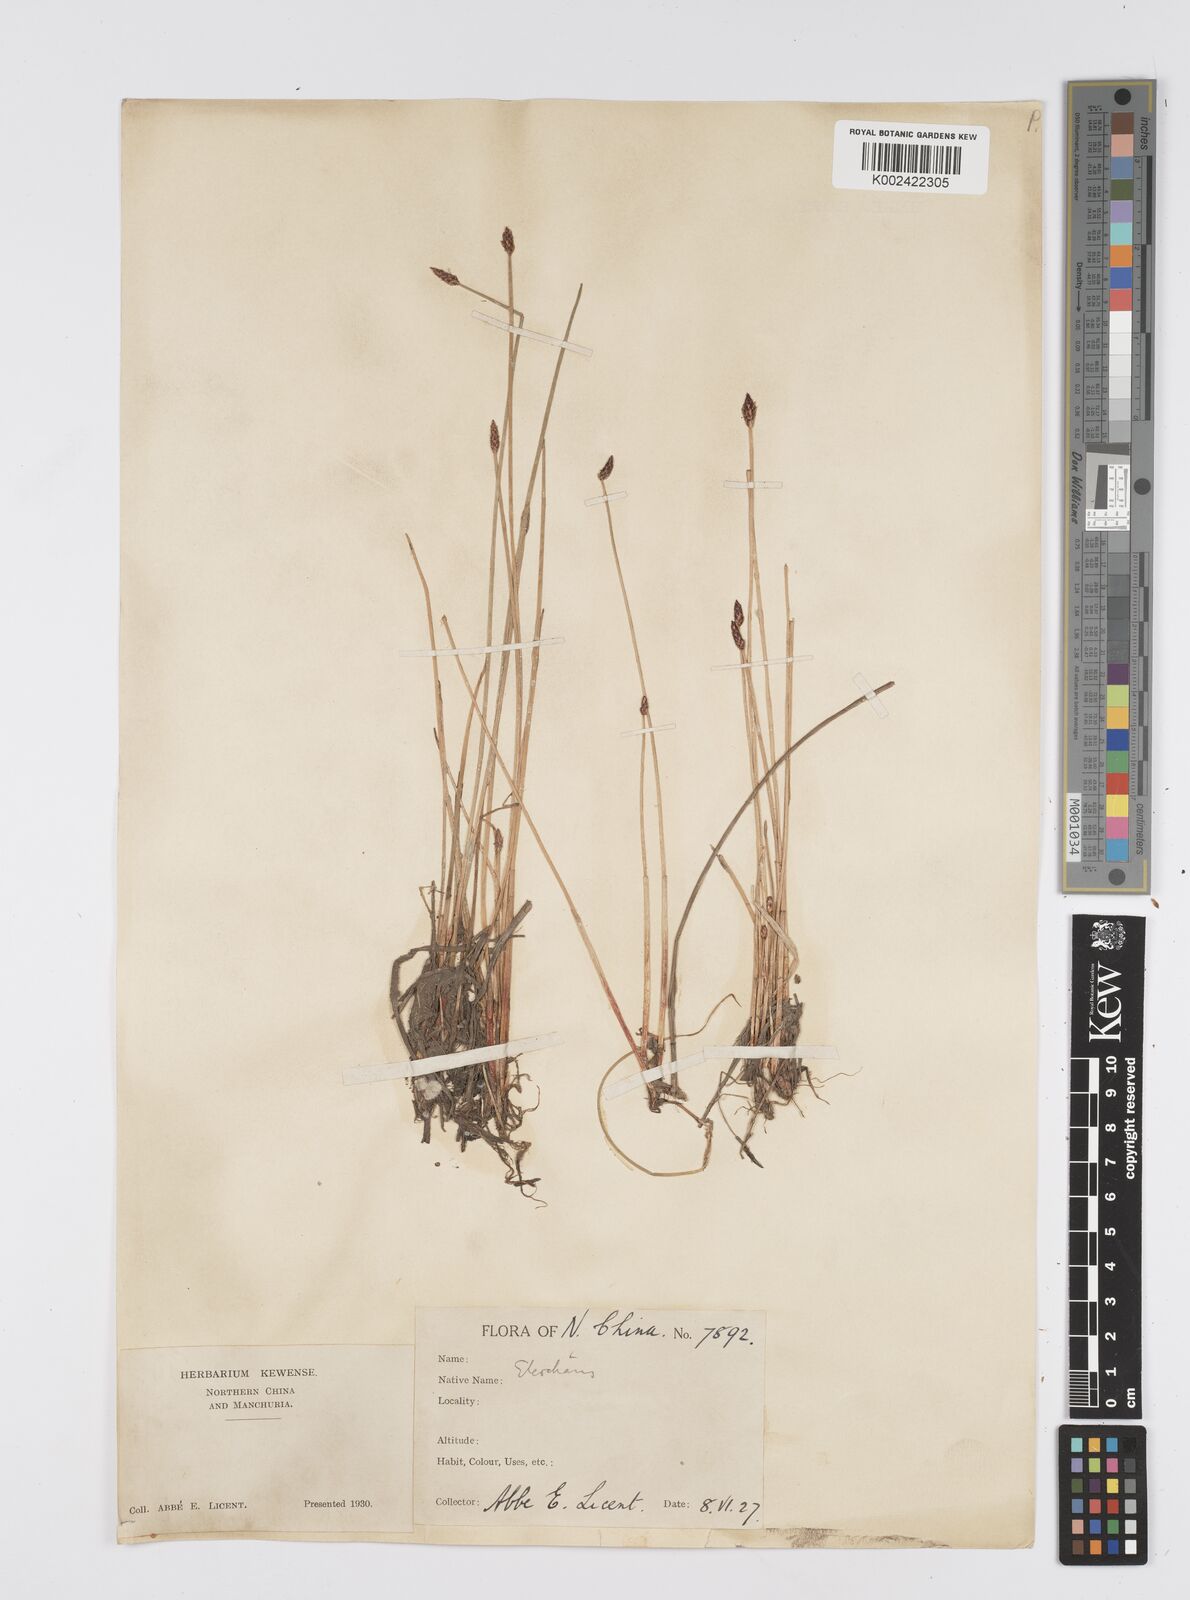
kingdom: Plantae
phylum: Tracheophyta
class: Liliopsida
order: Poales
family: Cyperaceae
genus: Eleocharis
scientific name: Eleocharis
